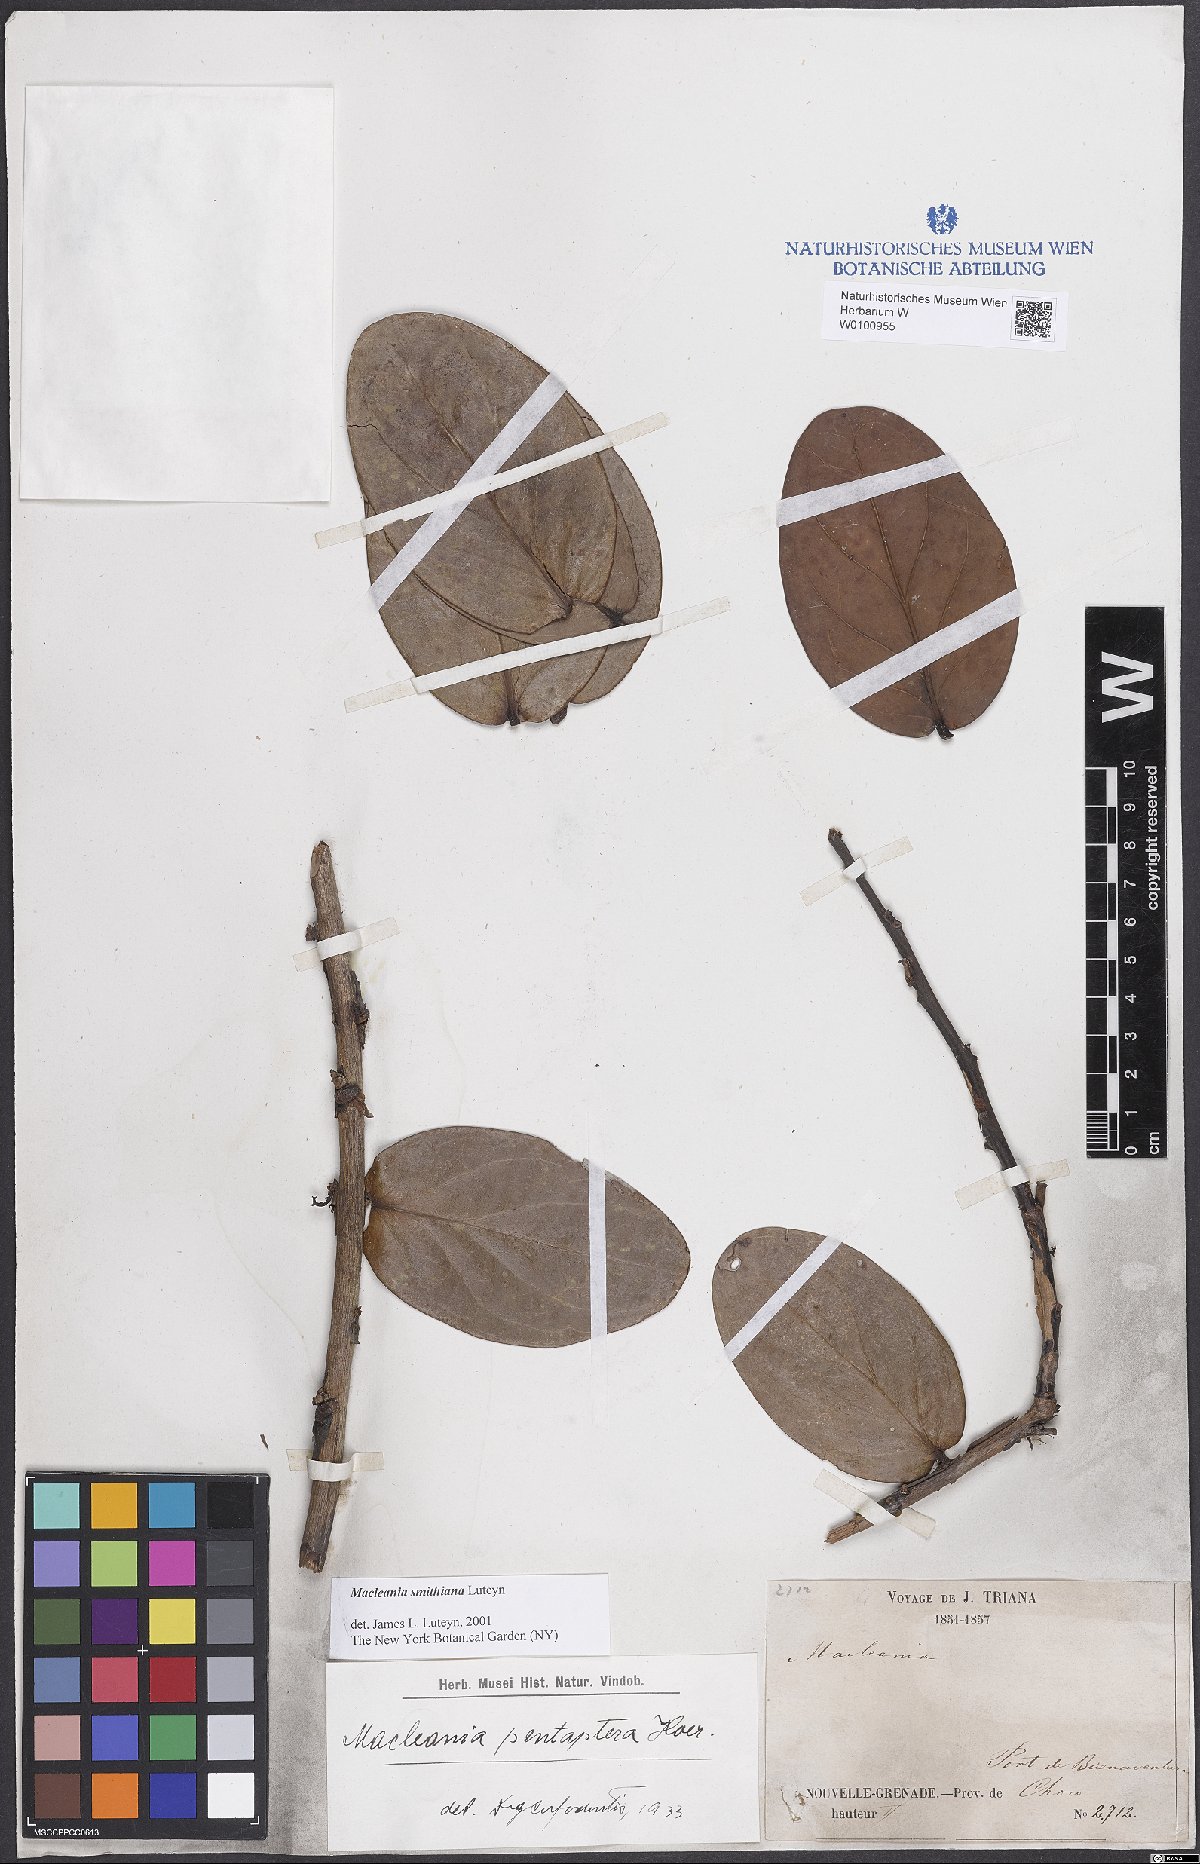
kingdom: Plantae
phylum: Tracheophyta
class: Magnoliopsida
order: Ericales
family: Ericaceae
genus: Macleania
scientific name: Macleania smithiana
